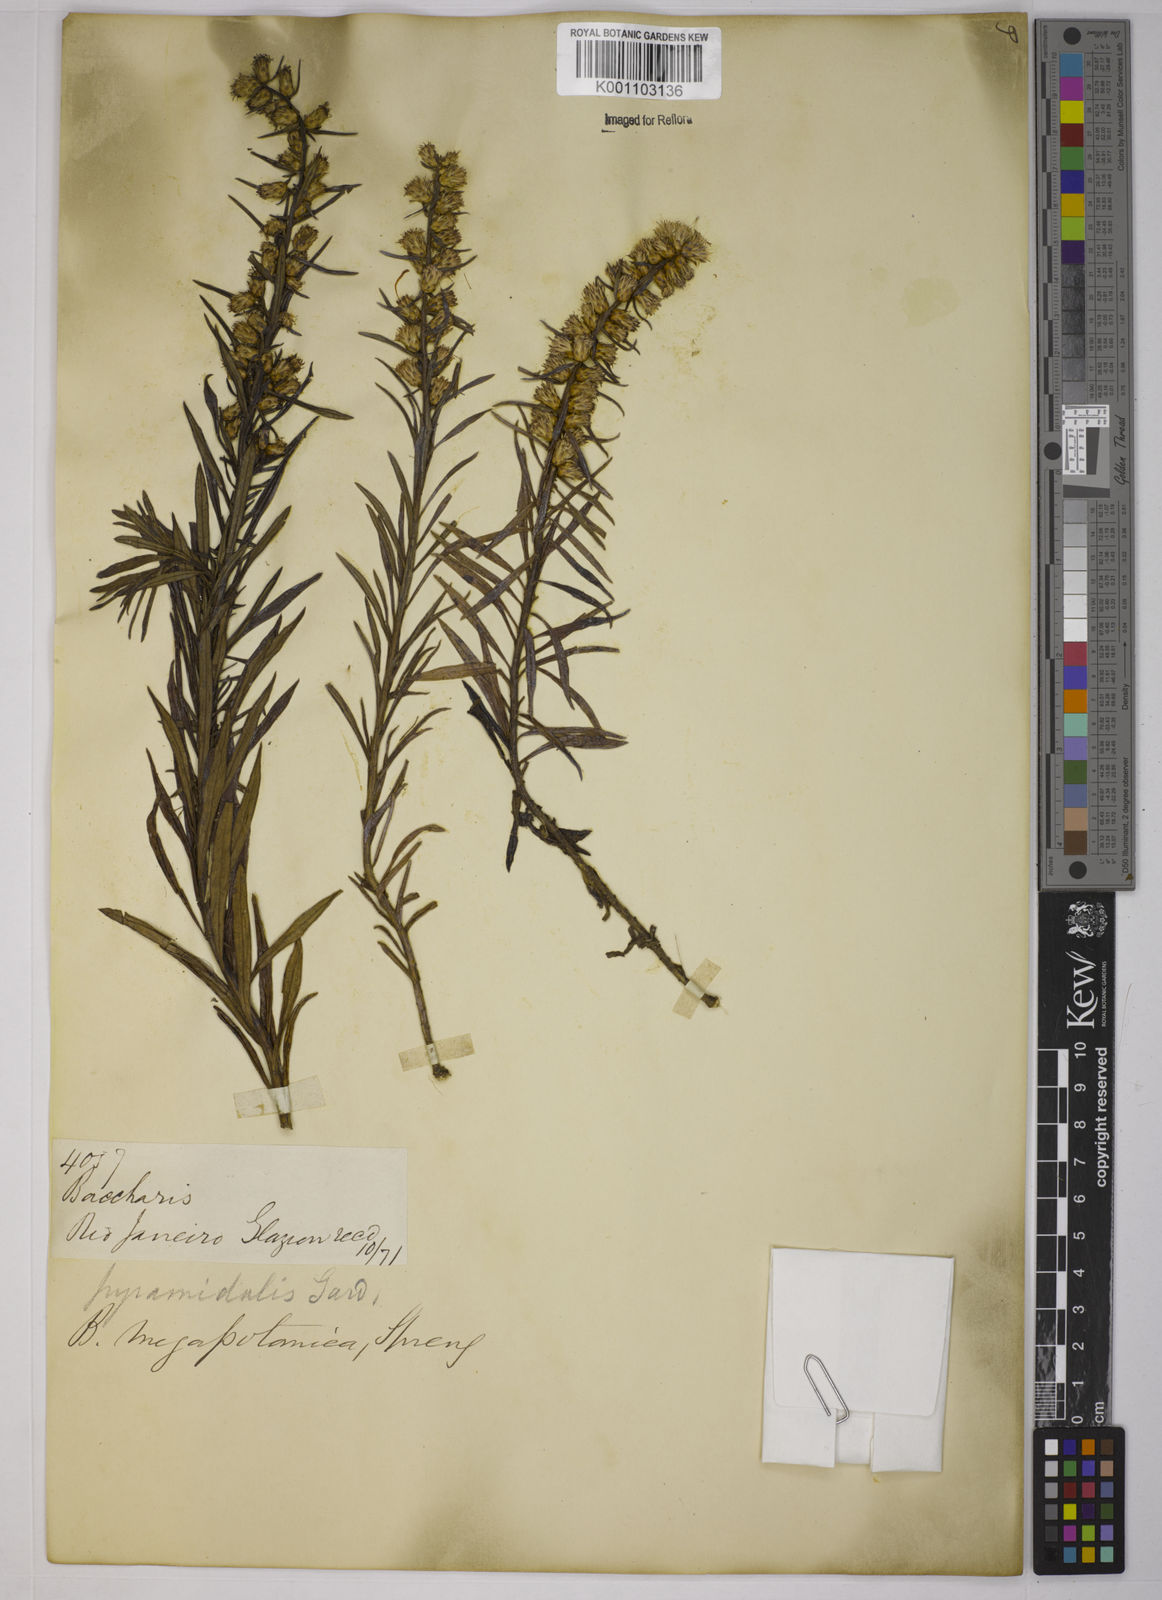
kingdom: Plantae
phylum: Tracheophyta
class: Magnoliopsida
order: Asterales
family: Asteraceae
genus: Baccharis
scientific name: Baccharis megapotamica
